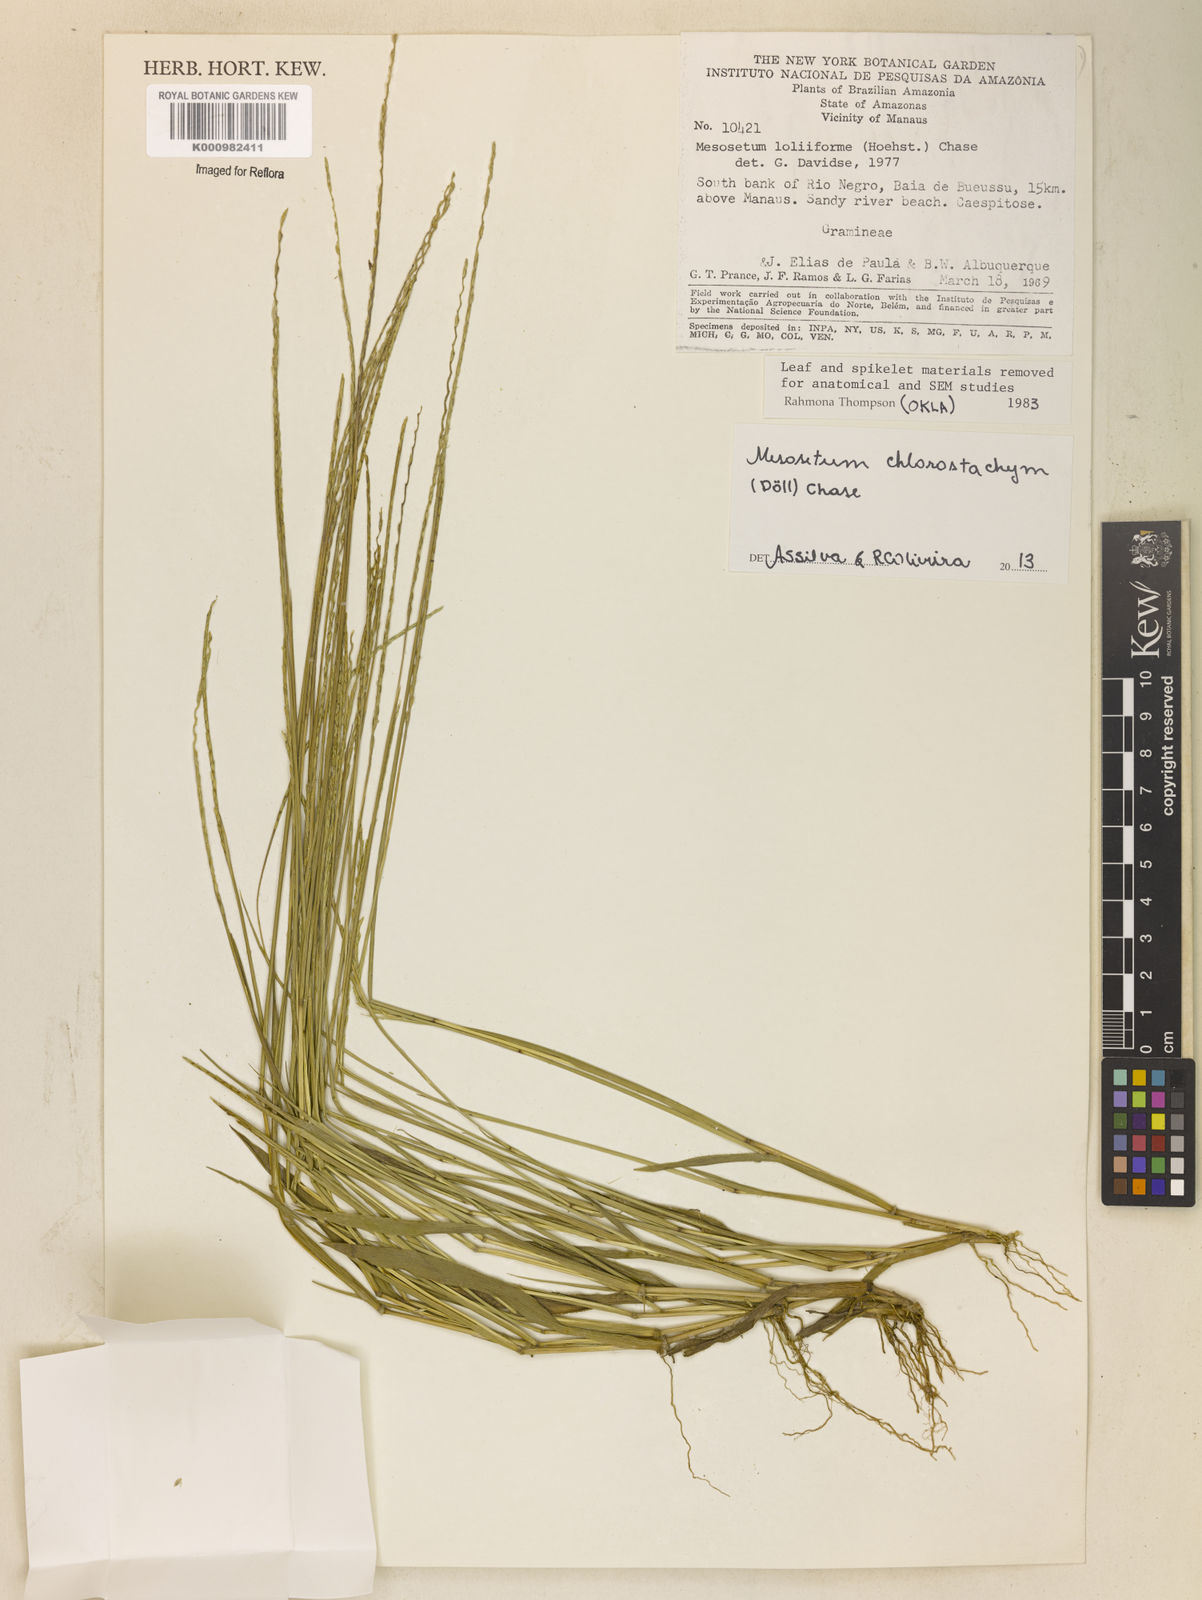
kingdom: Plantae
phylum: Tracheophyta
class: Liliopsida
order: Poales
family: Poaceae
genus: Mesosetum
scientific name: Mesosetum
